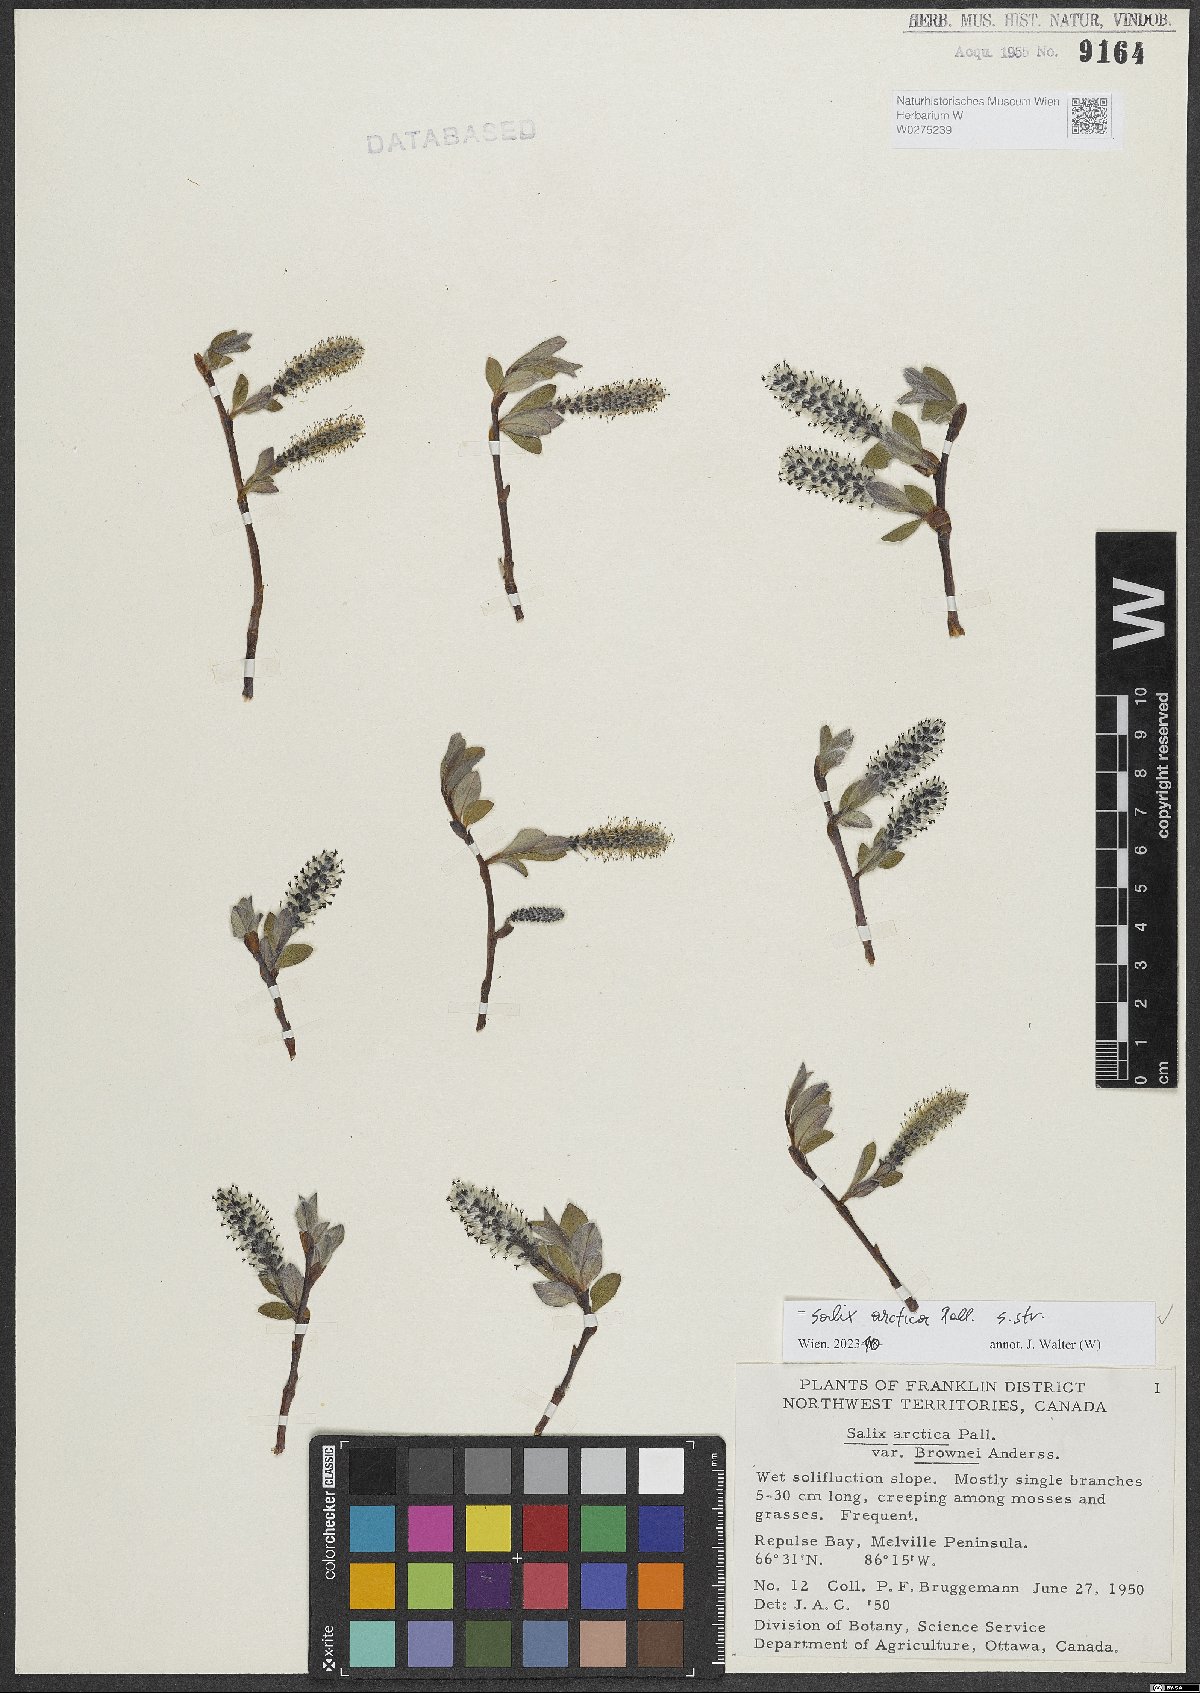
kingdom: Plantae
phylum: Tracheophyta
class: Magnoliopsida
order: Malpighiales
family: Salicaceae
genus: Salix
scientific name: Salix arctica
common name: Arctic willow
